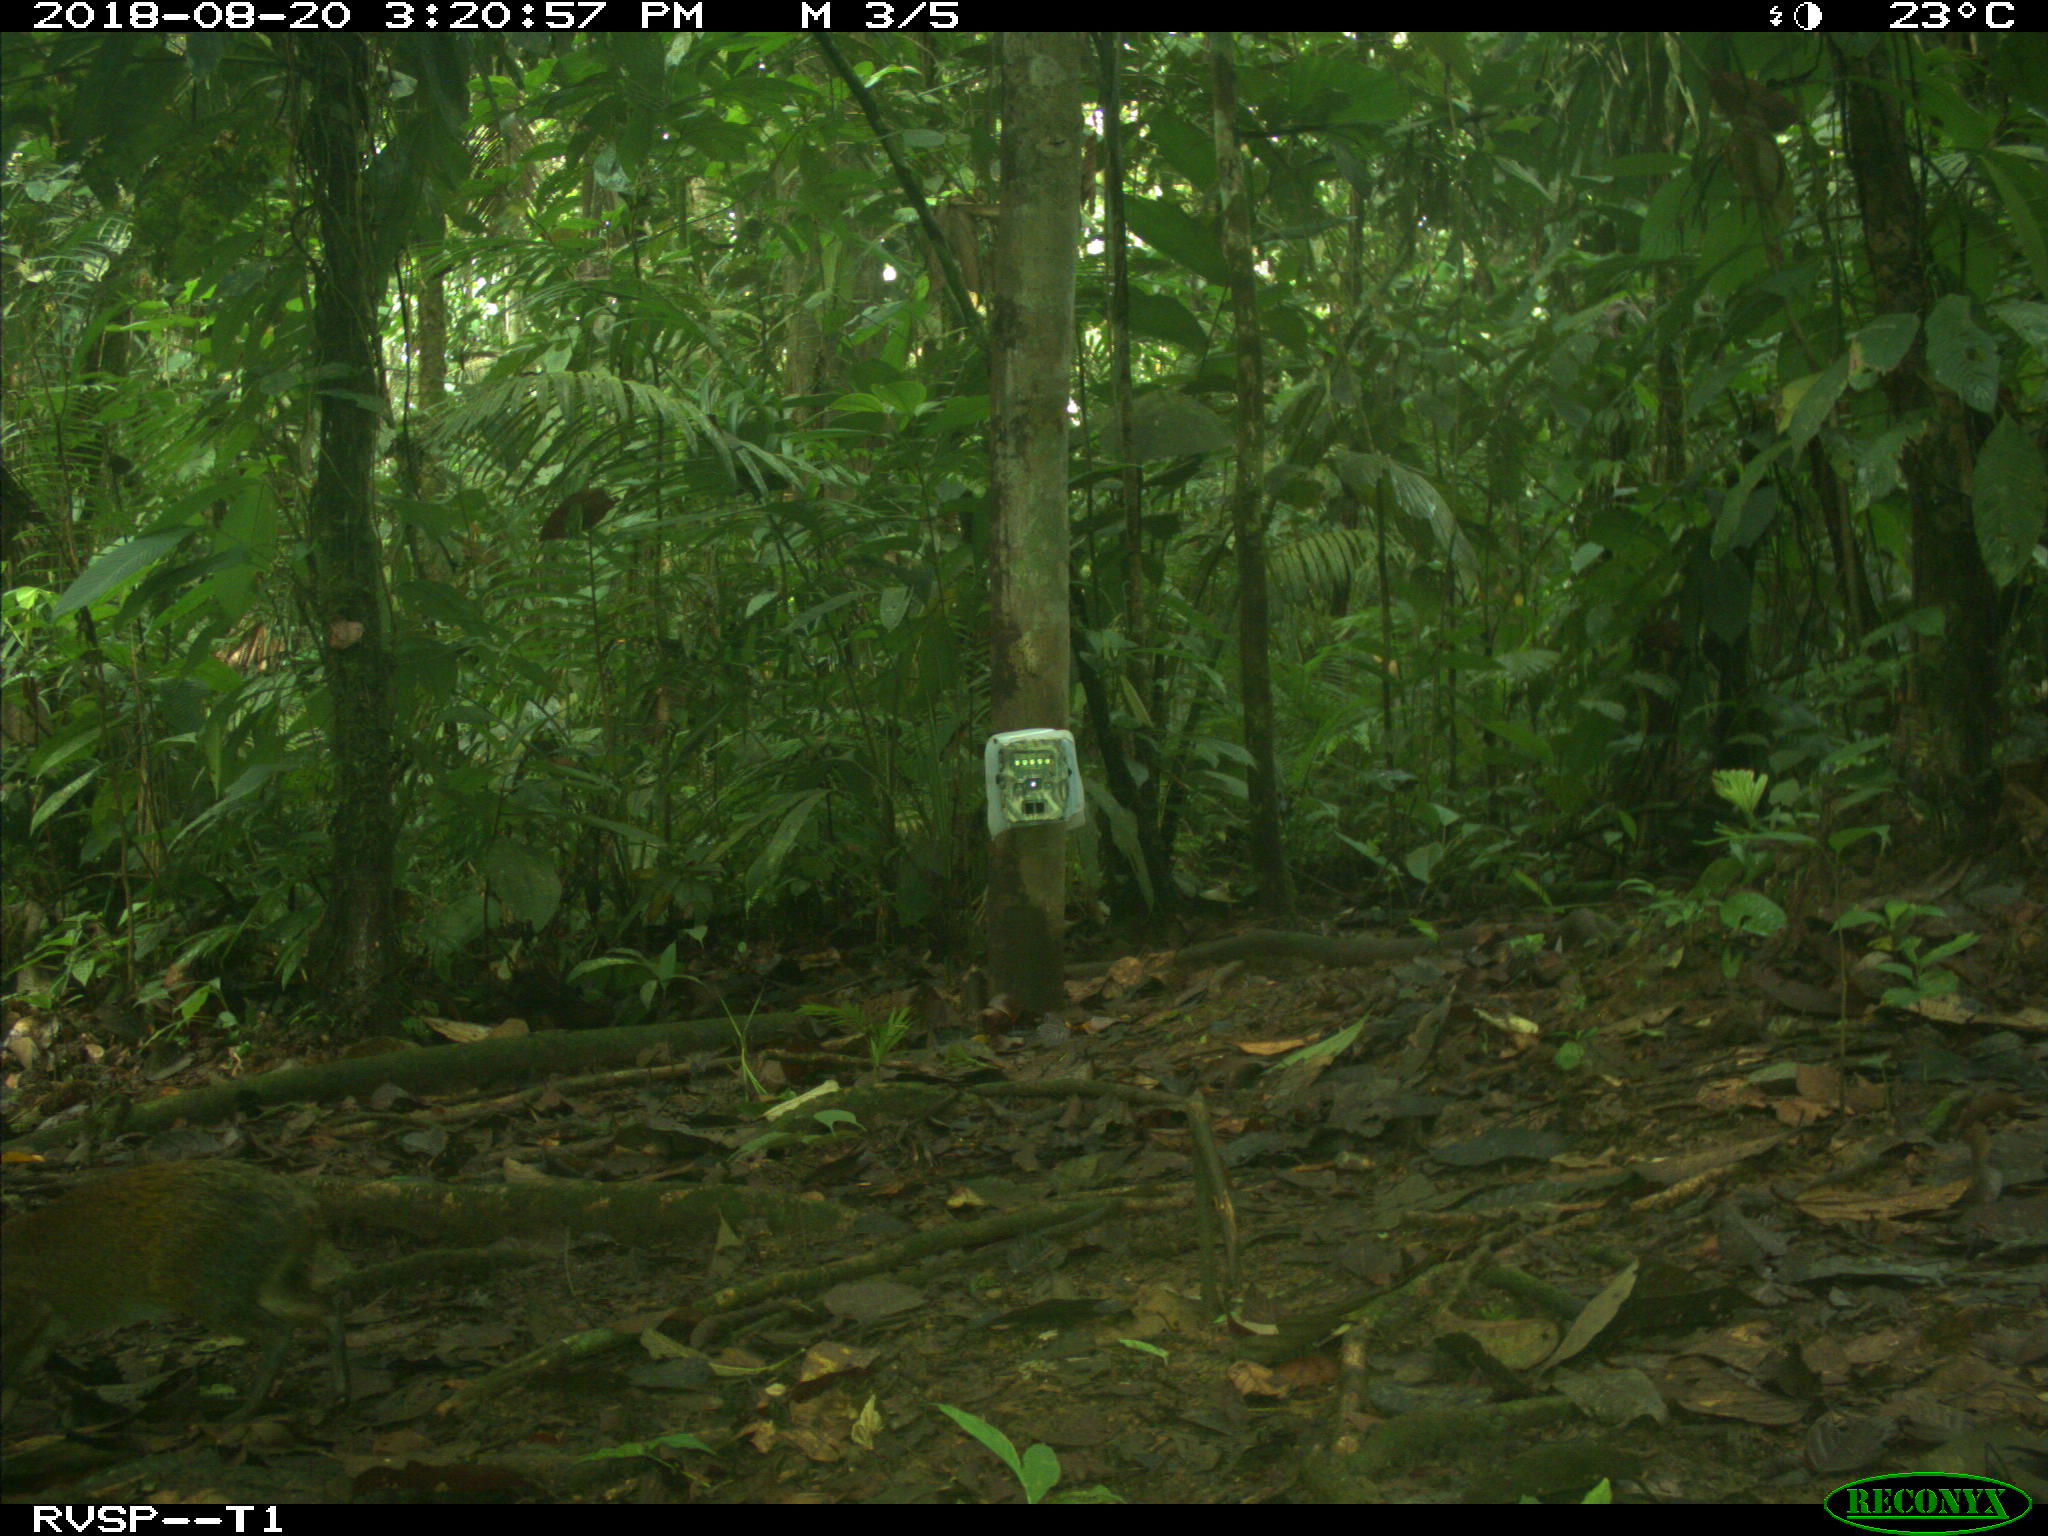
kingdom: Animalia
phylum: Chordata
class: Mammalia
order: Rodentia
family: Dasyproctidae
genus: Dasyprocta
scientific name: Dasyprocta punctata
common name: Central american agouti
